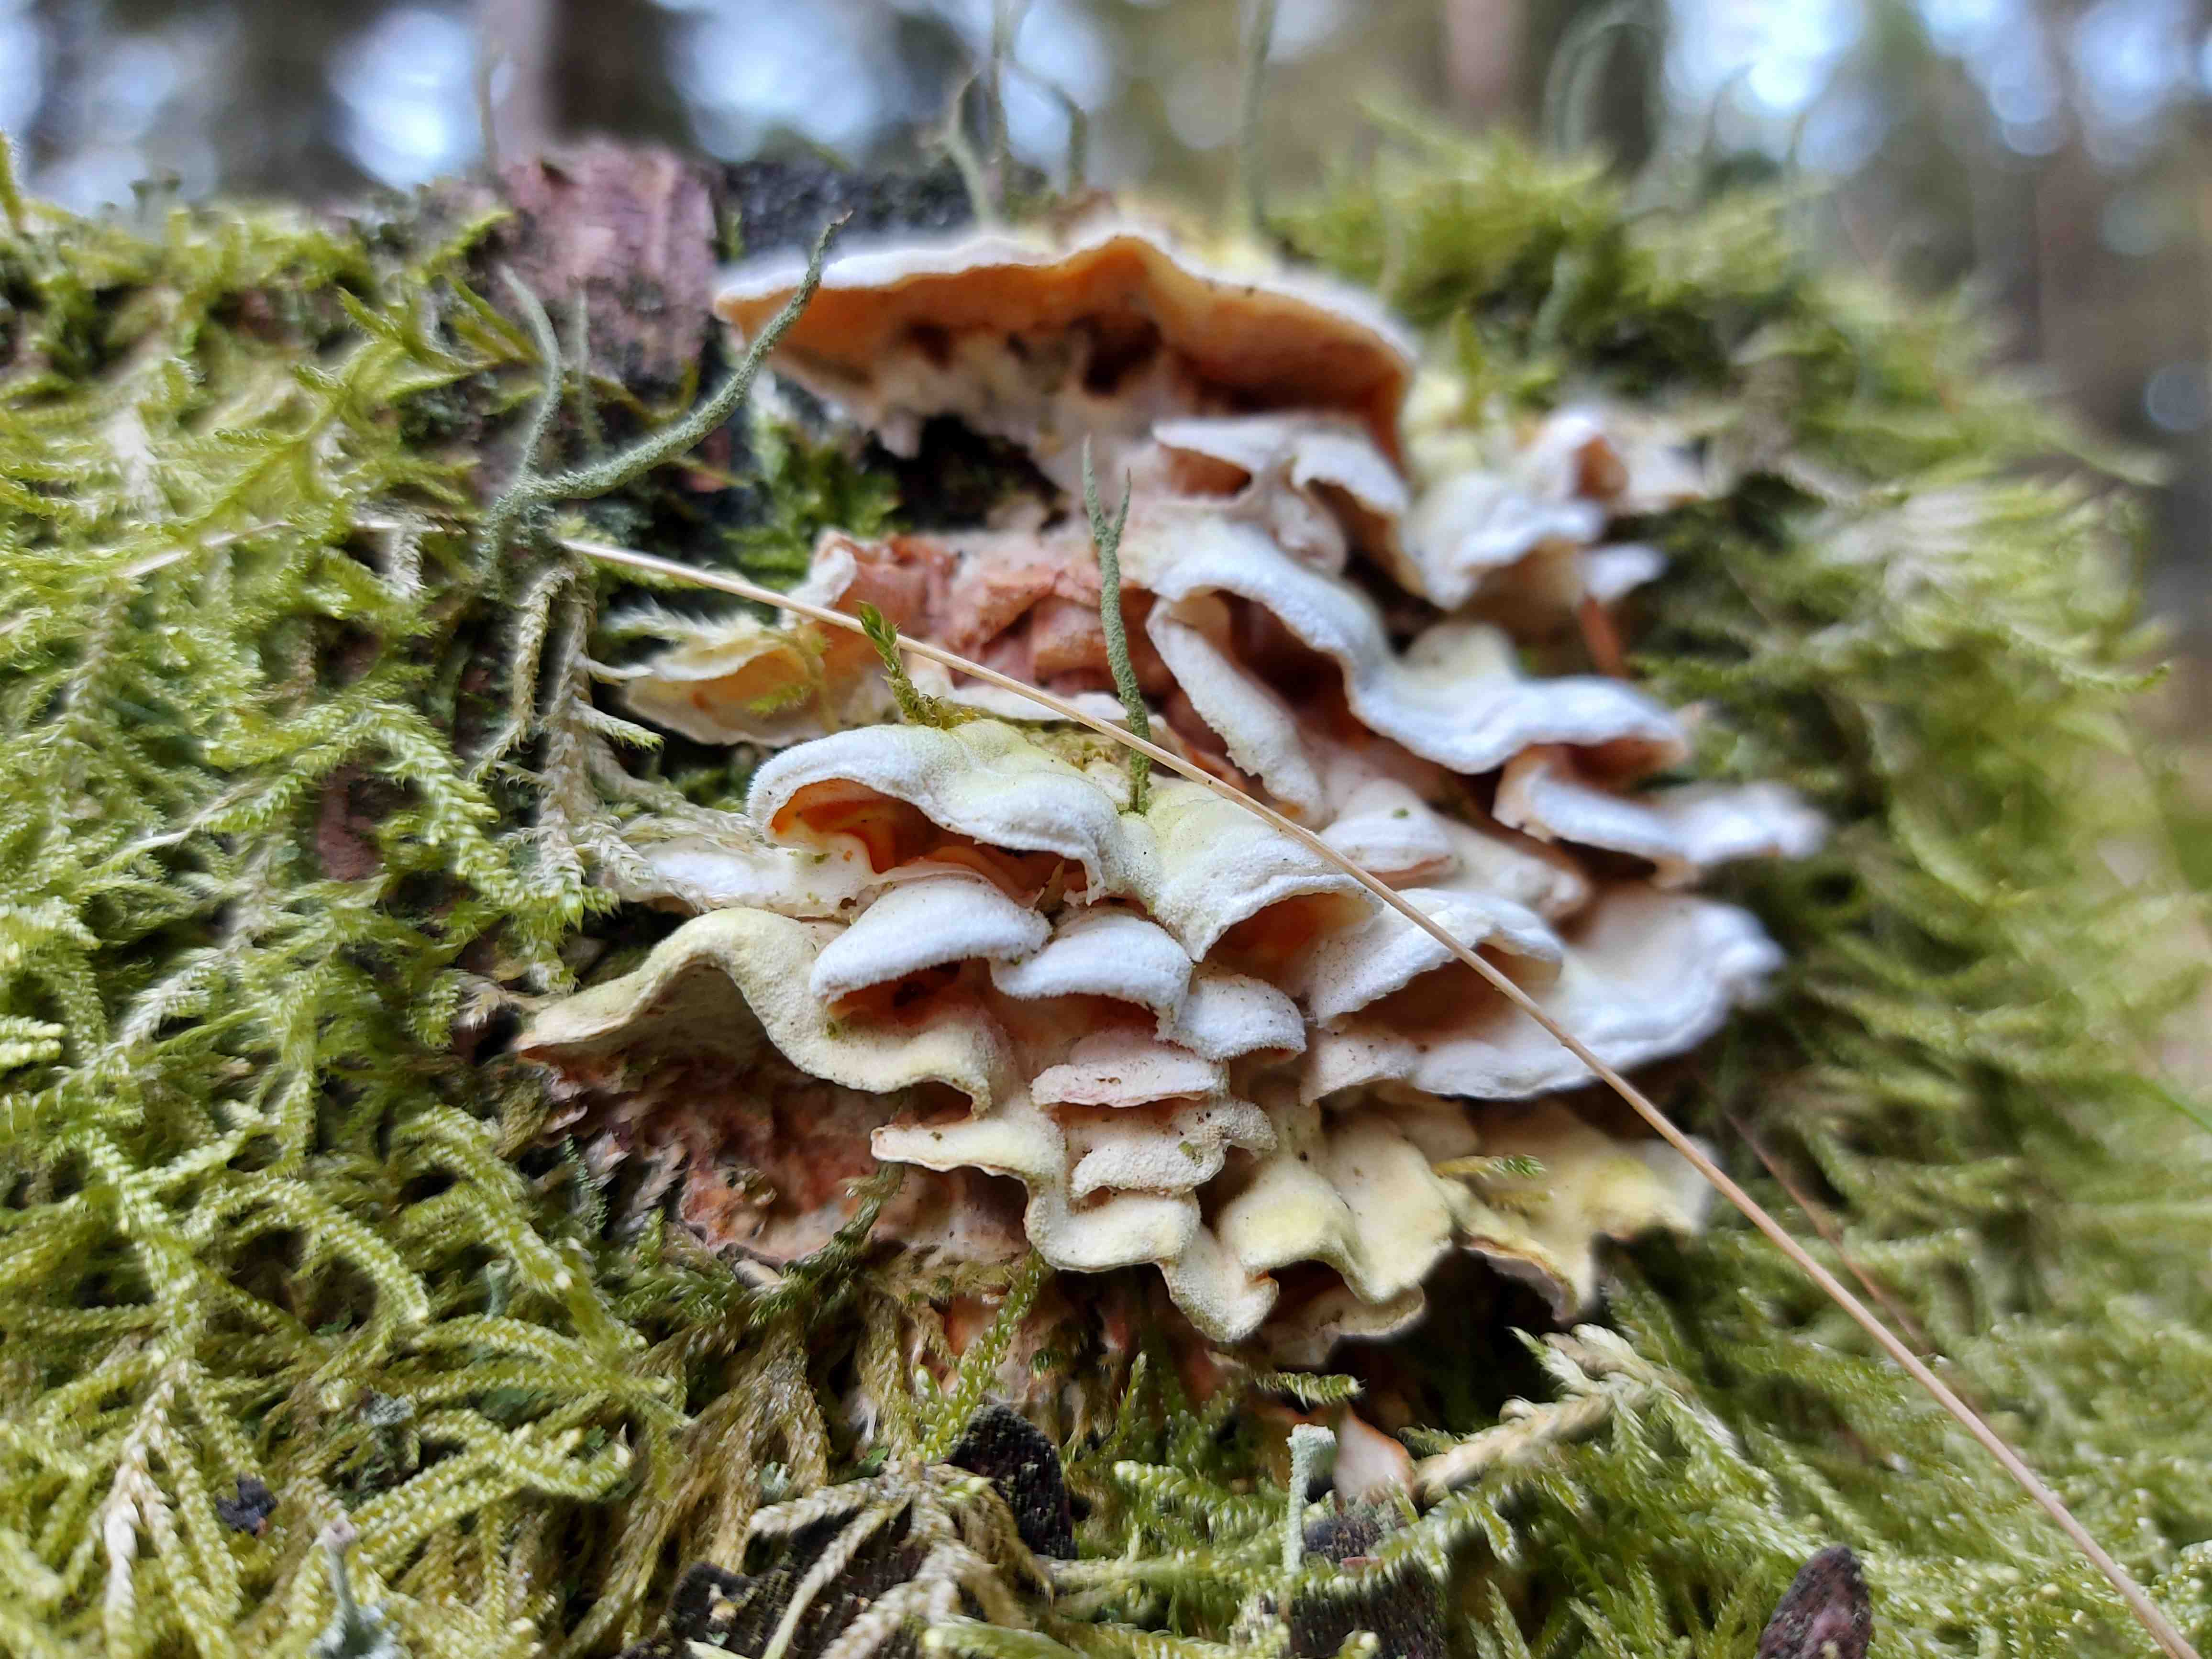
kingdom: Fungi
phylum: Basidiomycota
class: Agaricomycetes
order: Polyporales
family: Incrustoporiaceae
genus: Skeletocutis
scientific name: Skeletocutis amorpha
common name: orange krystalporesvamp
